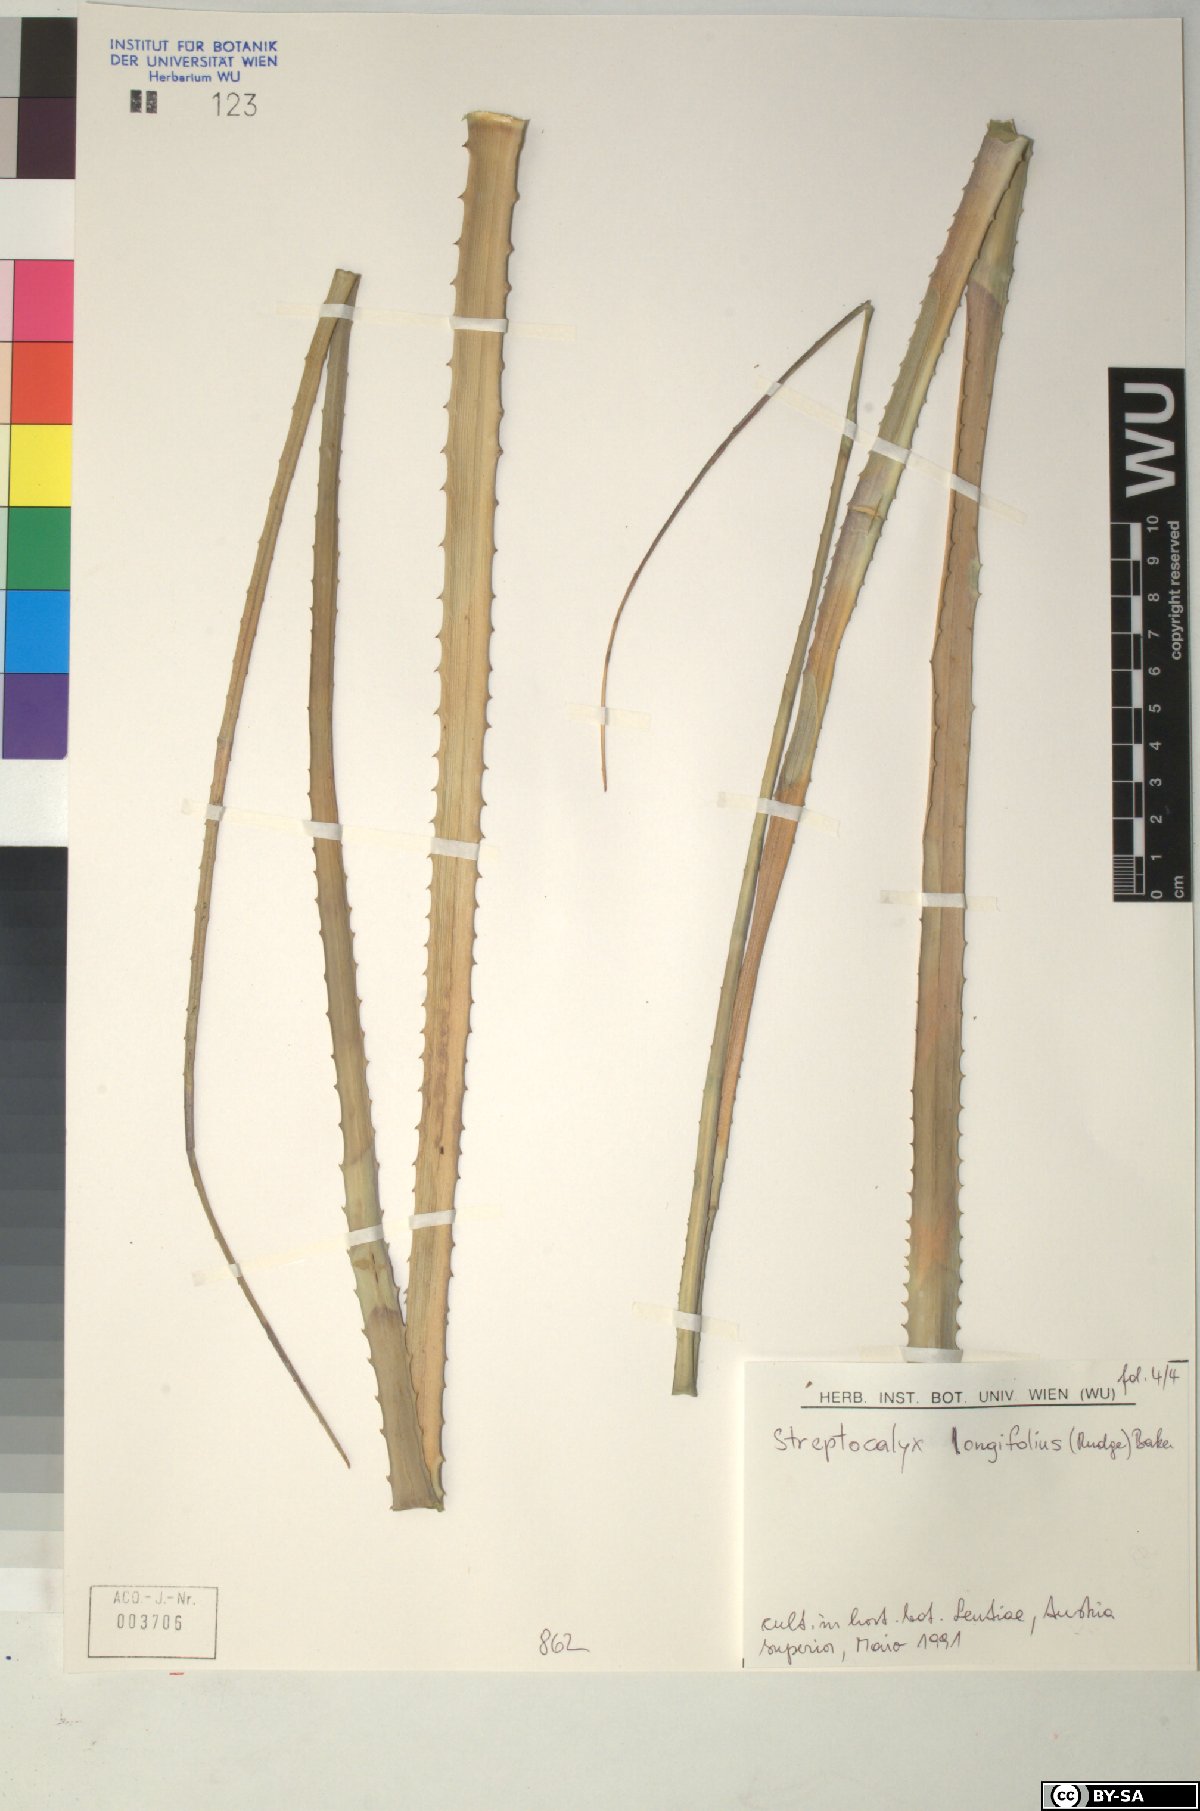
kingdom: Plantae
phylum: Tracheophyta
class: Liliopsida
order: Poales
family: Bromeliaceae
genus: Aechmea
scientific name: Aechmea
